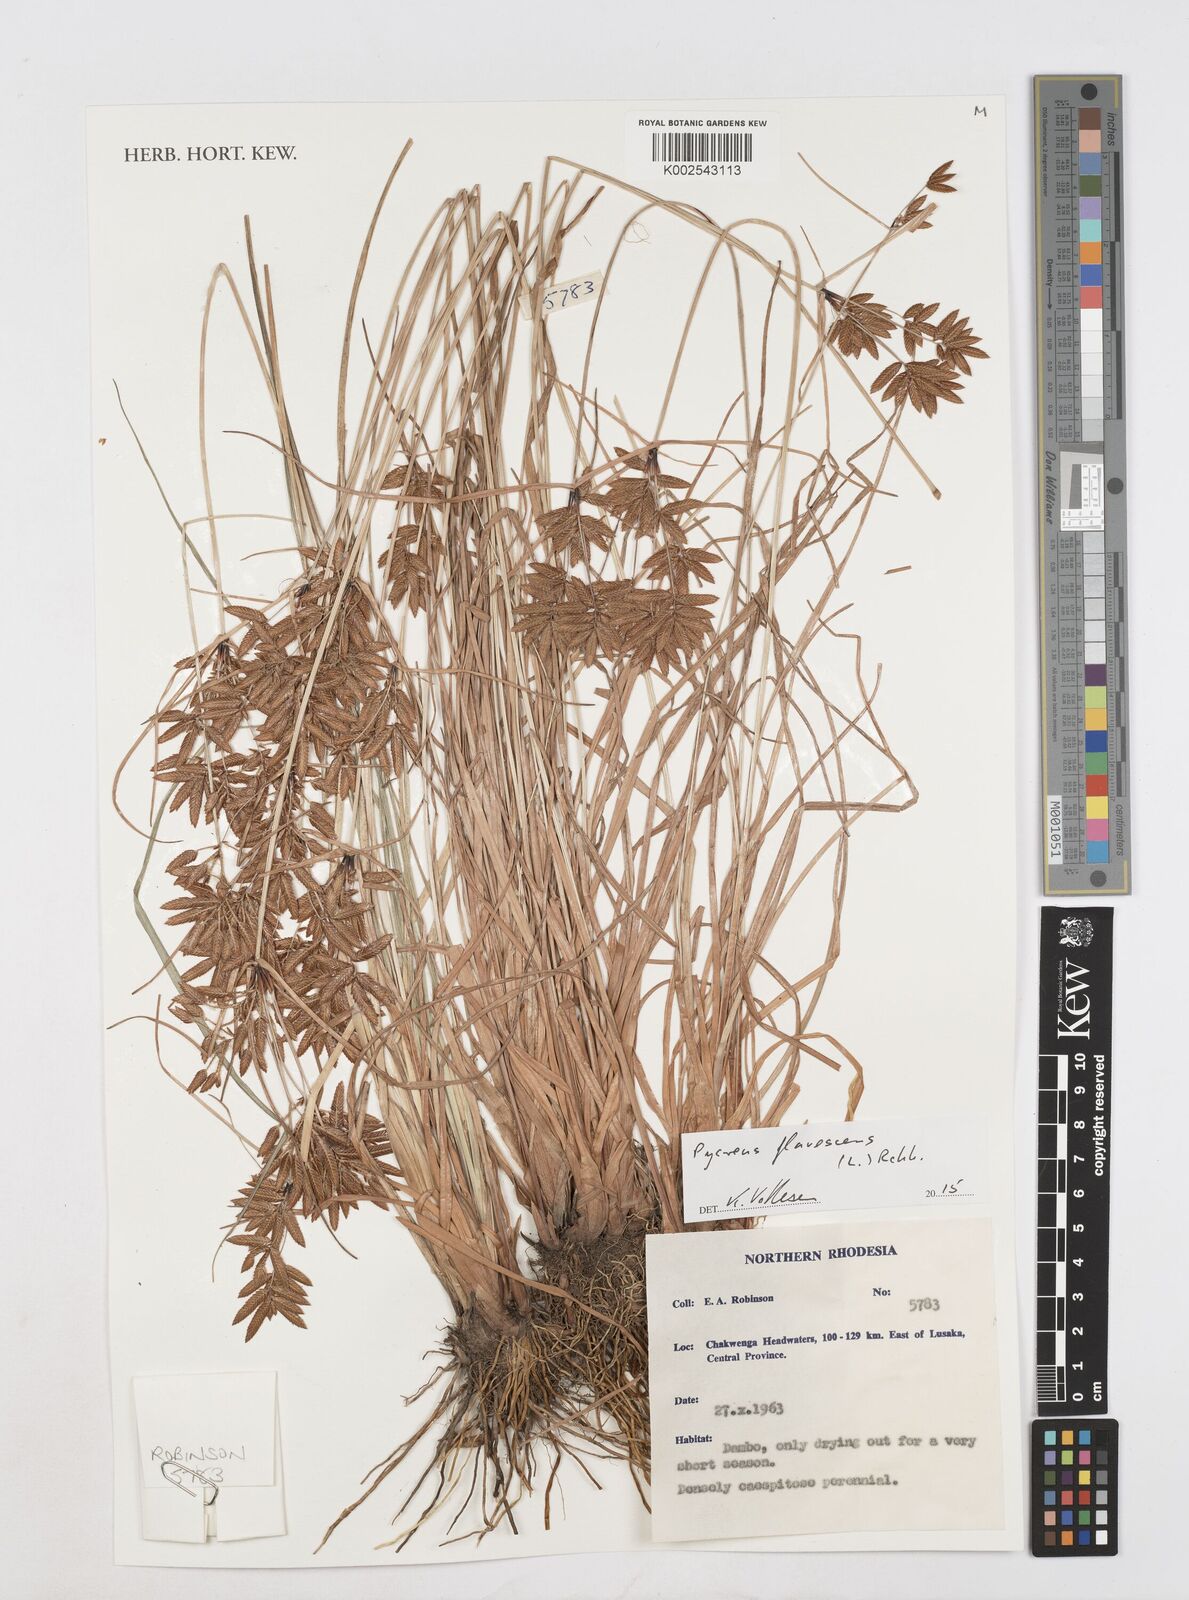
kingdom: Plantae
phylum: Tracheophyta
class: Liliopsida
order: Poales
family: Cyperaceae
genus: Cyperus
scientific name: Cyperus flavescens
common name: Yellow galingale
